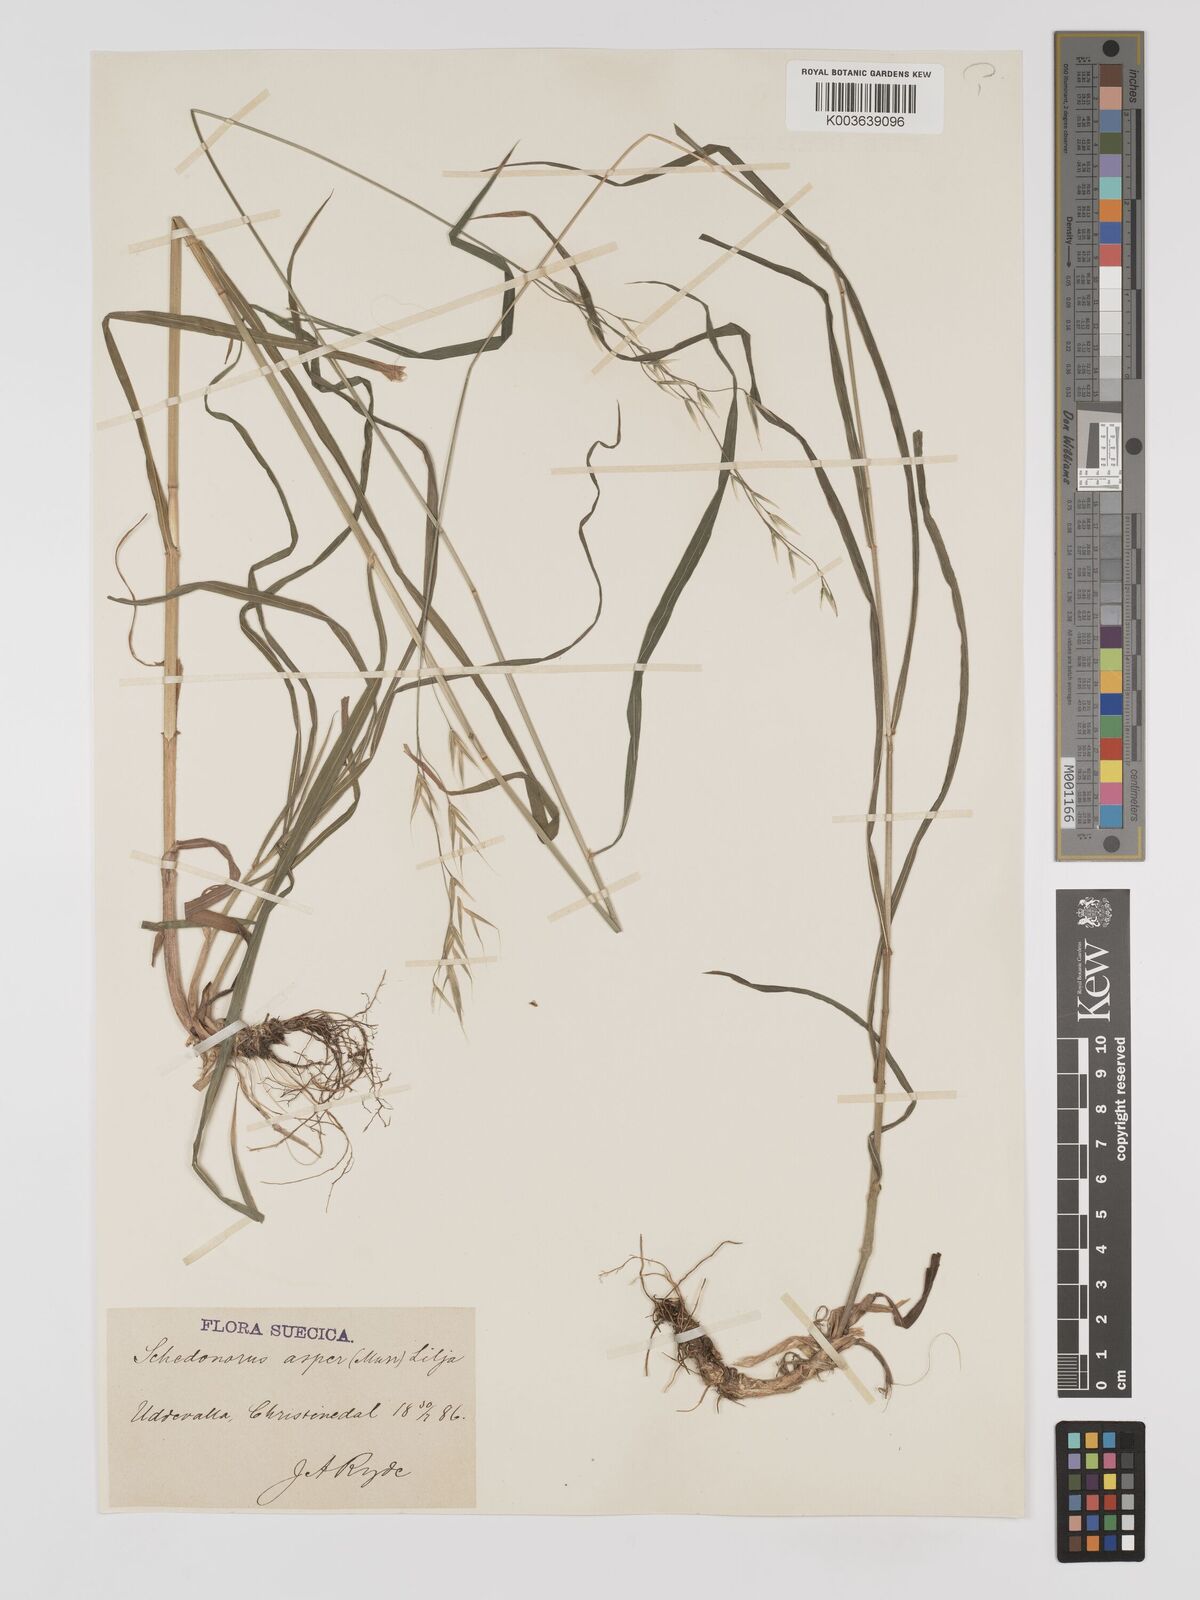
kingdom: Plantae
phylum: Tracheophyta
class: Liliopsida
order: Poales
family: Poaceae
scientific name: Poaceae
